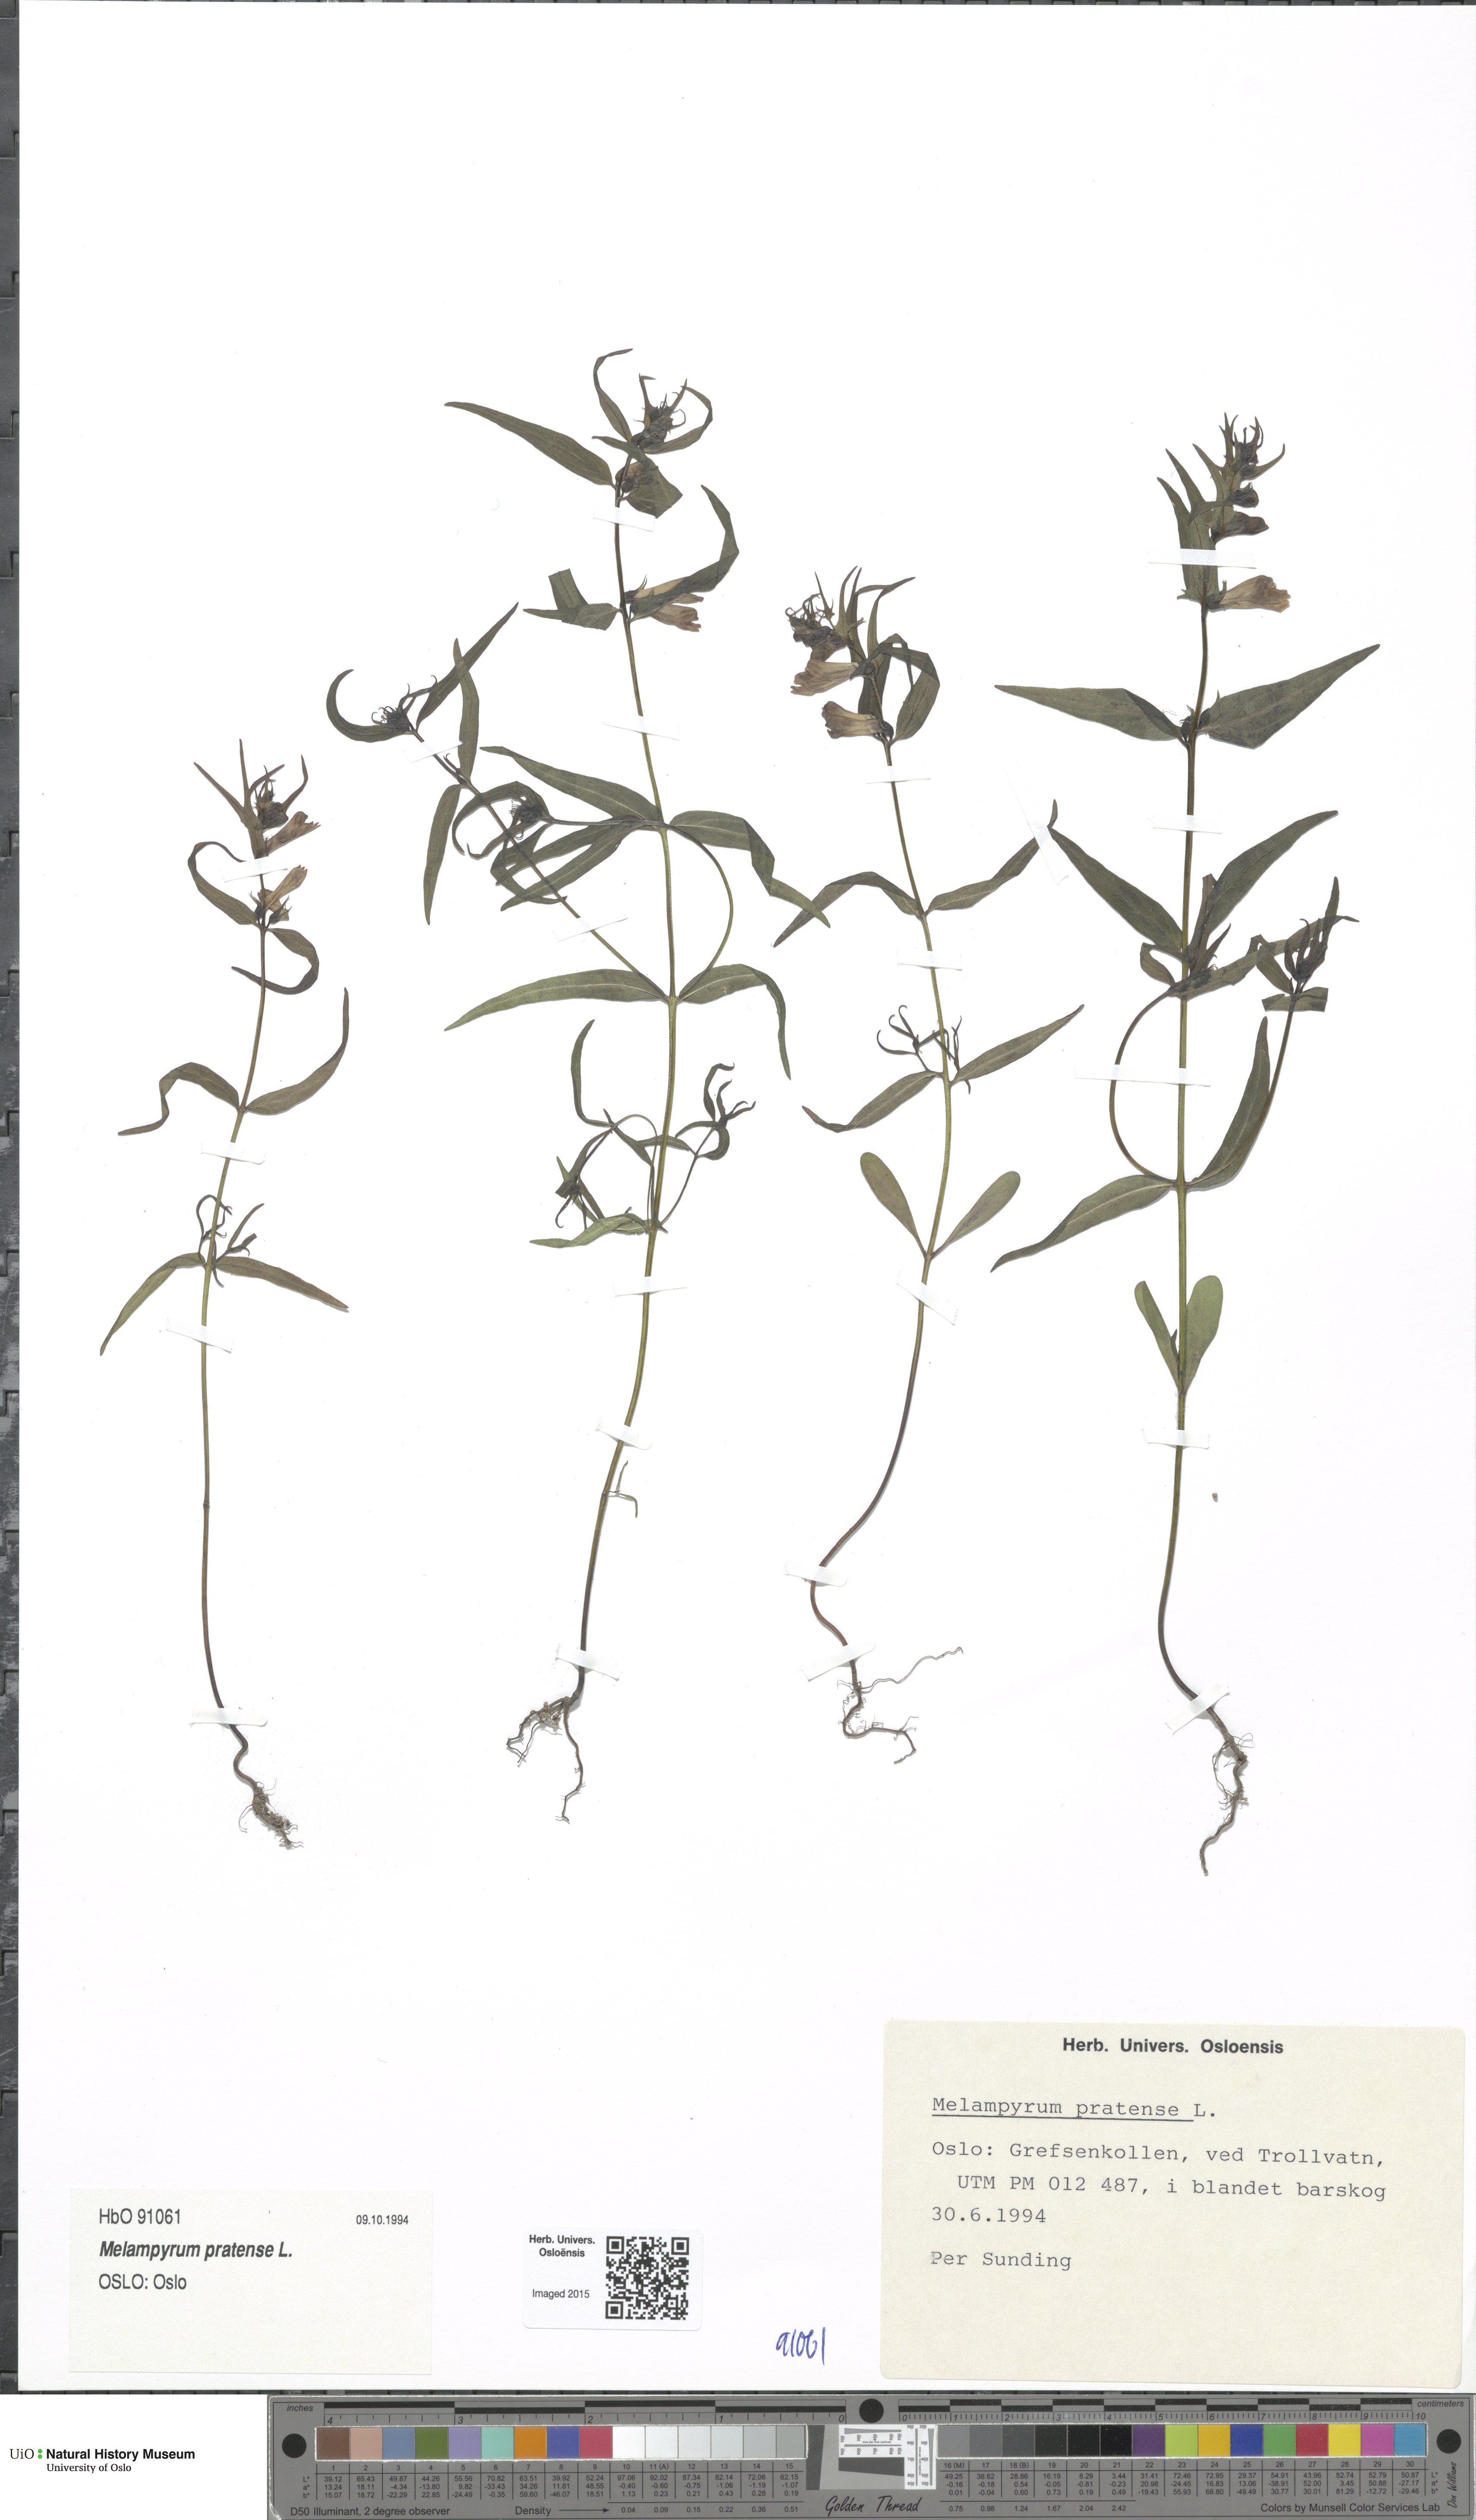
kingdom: Plantae
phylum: Tracheophyta
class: Magnoliopsida
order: Lamiales
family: Orobanchaceae
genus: Melampyrum
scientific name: Melampyrum pratense
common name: Common cow-wheat
